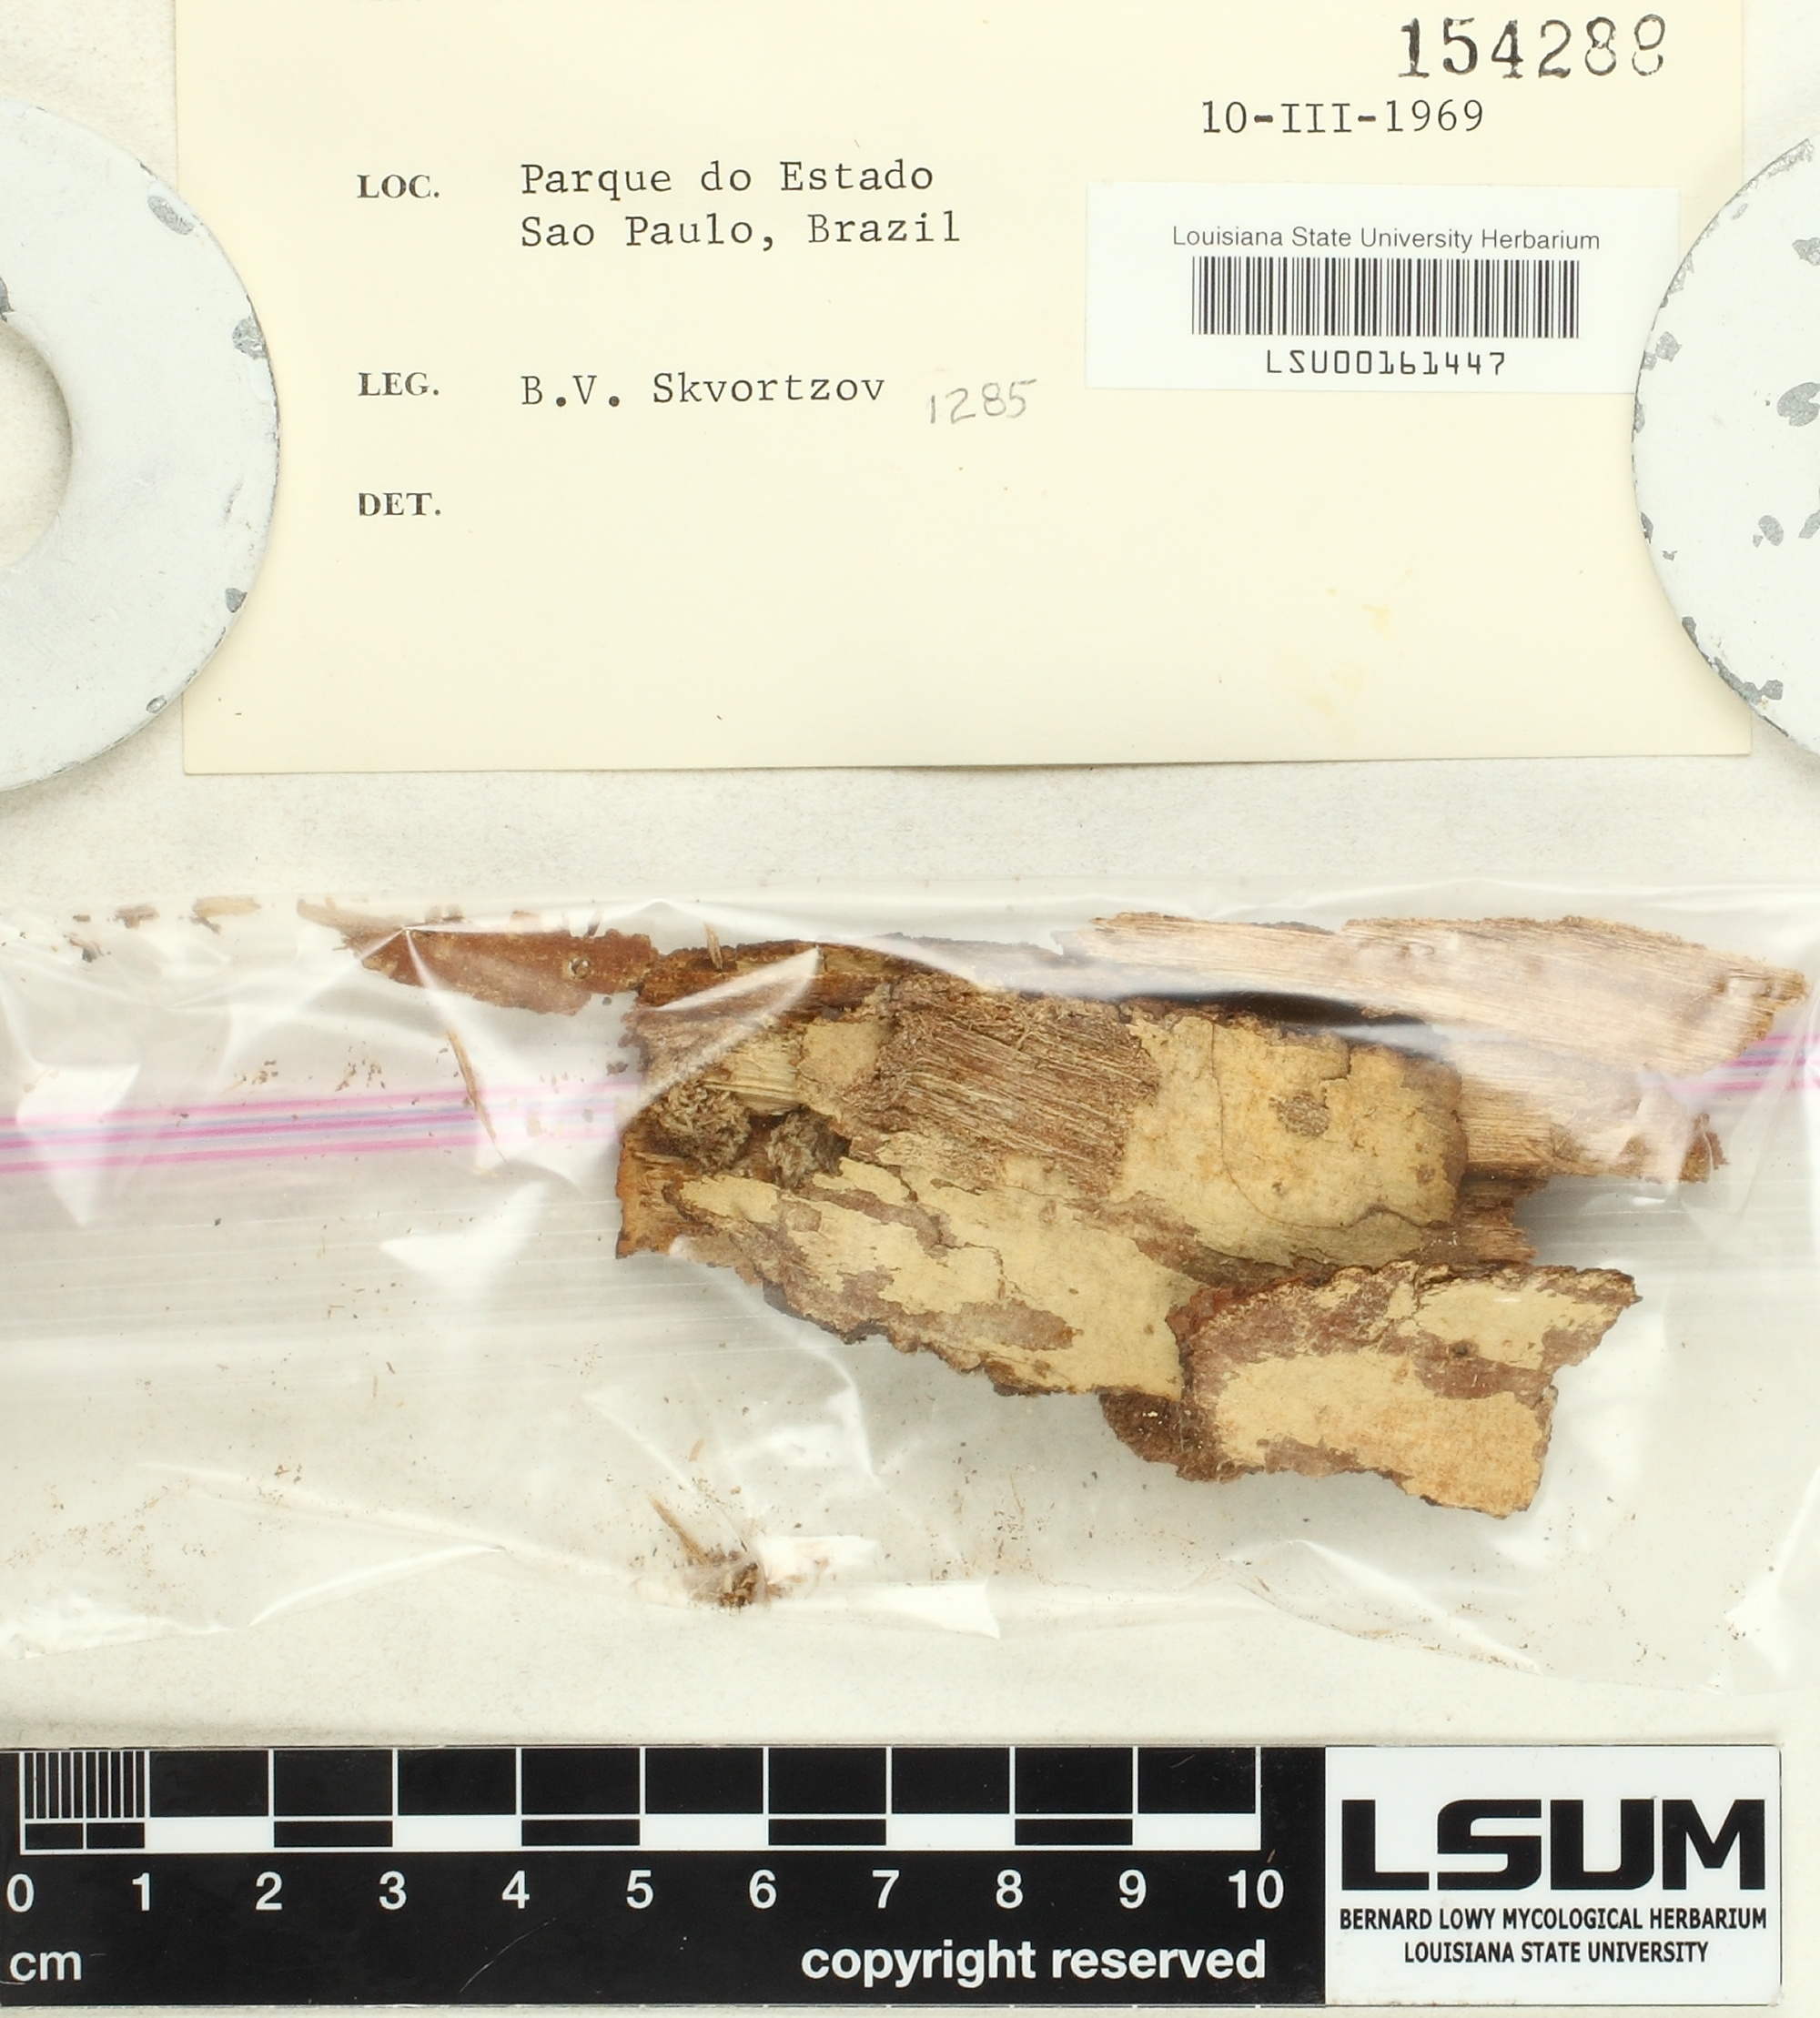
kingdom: Fungi
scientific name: Fungi
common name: Fungi
